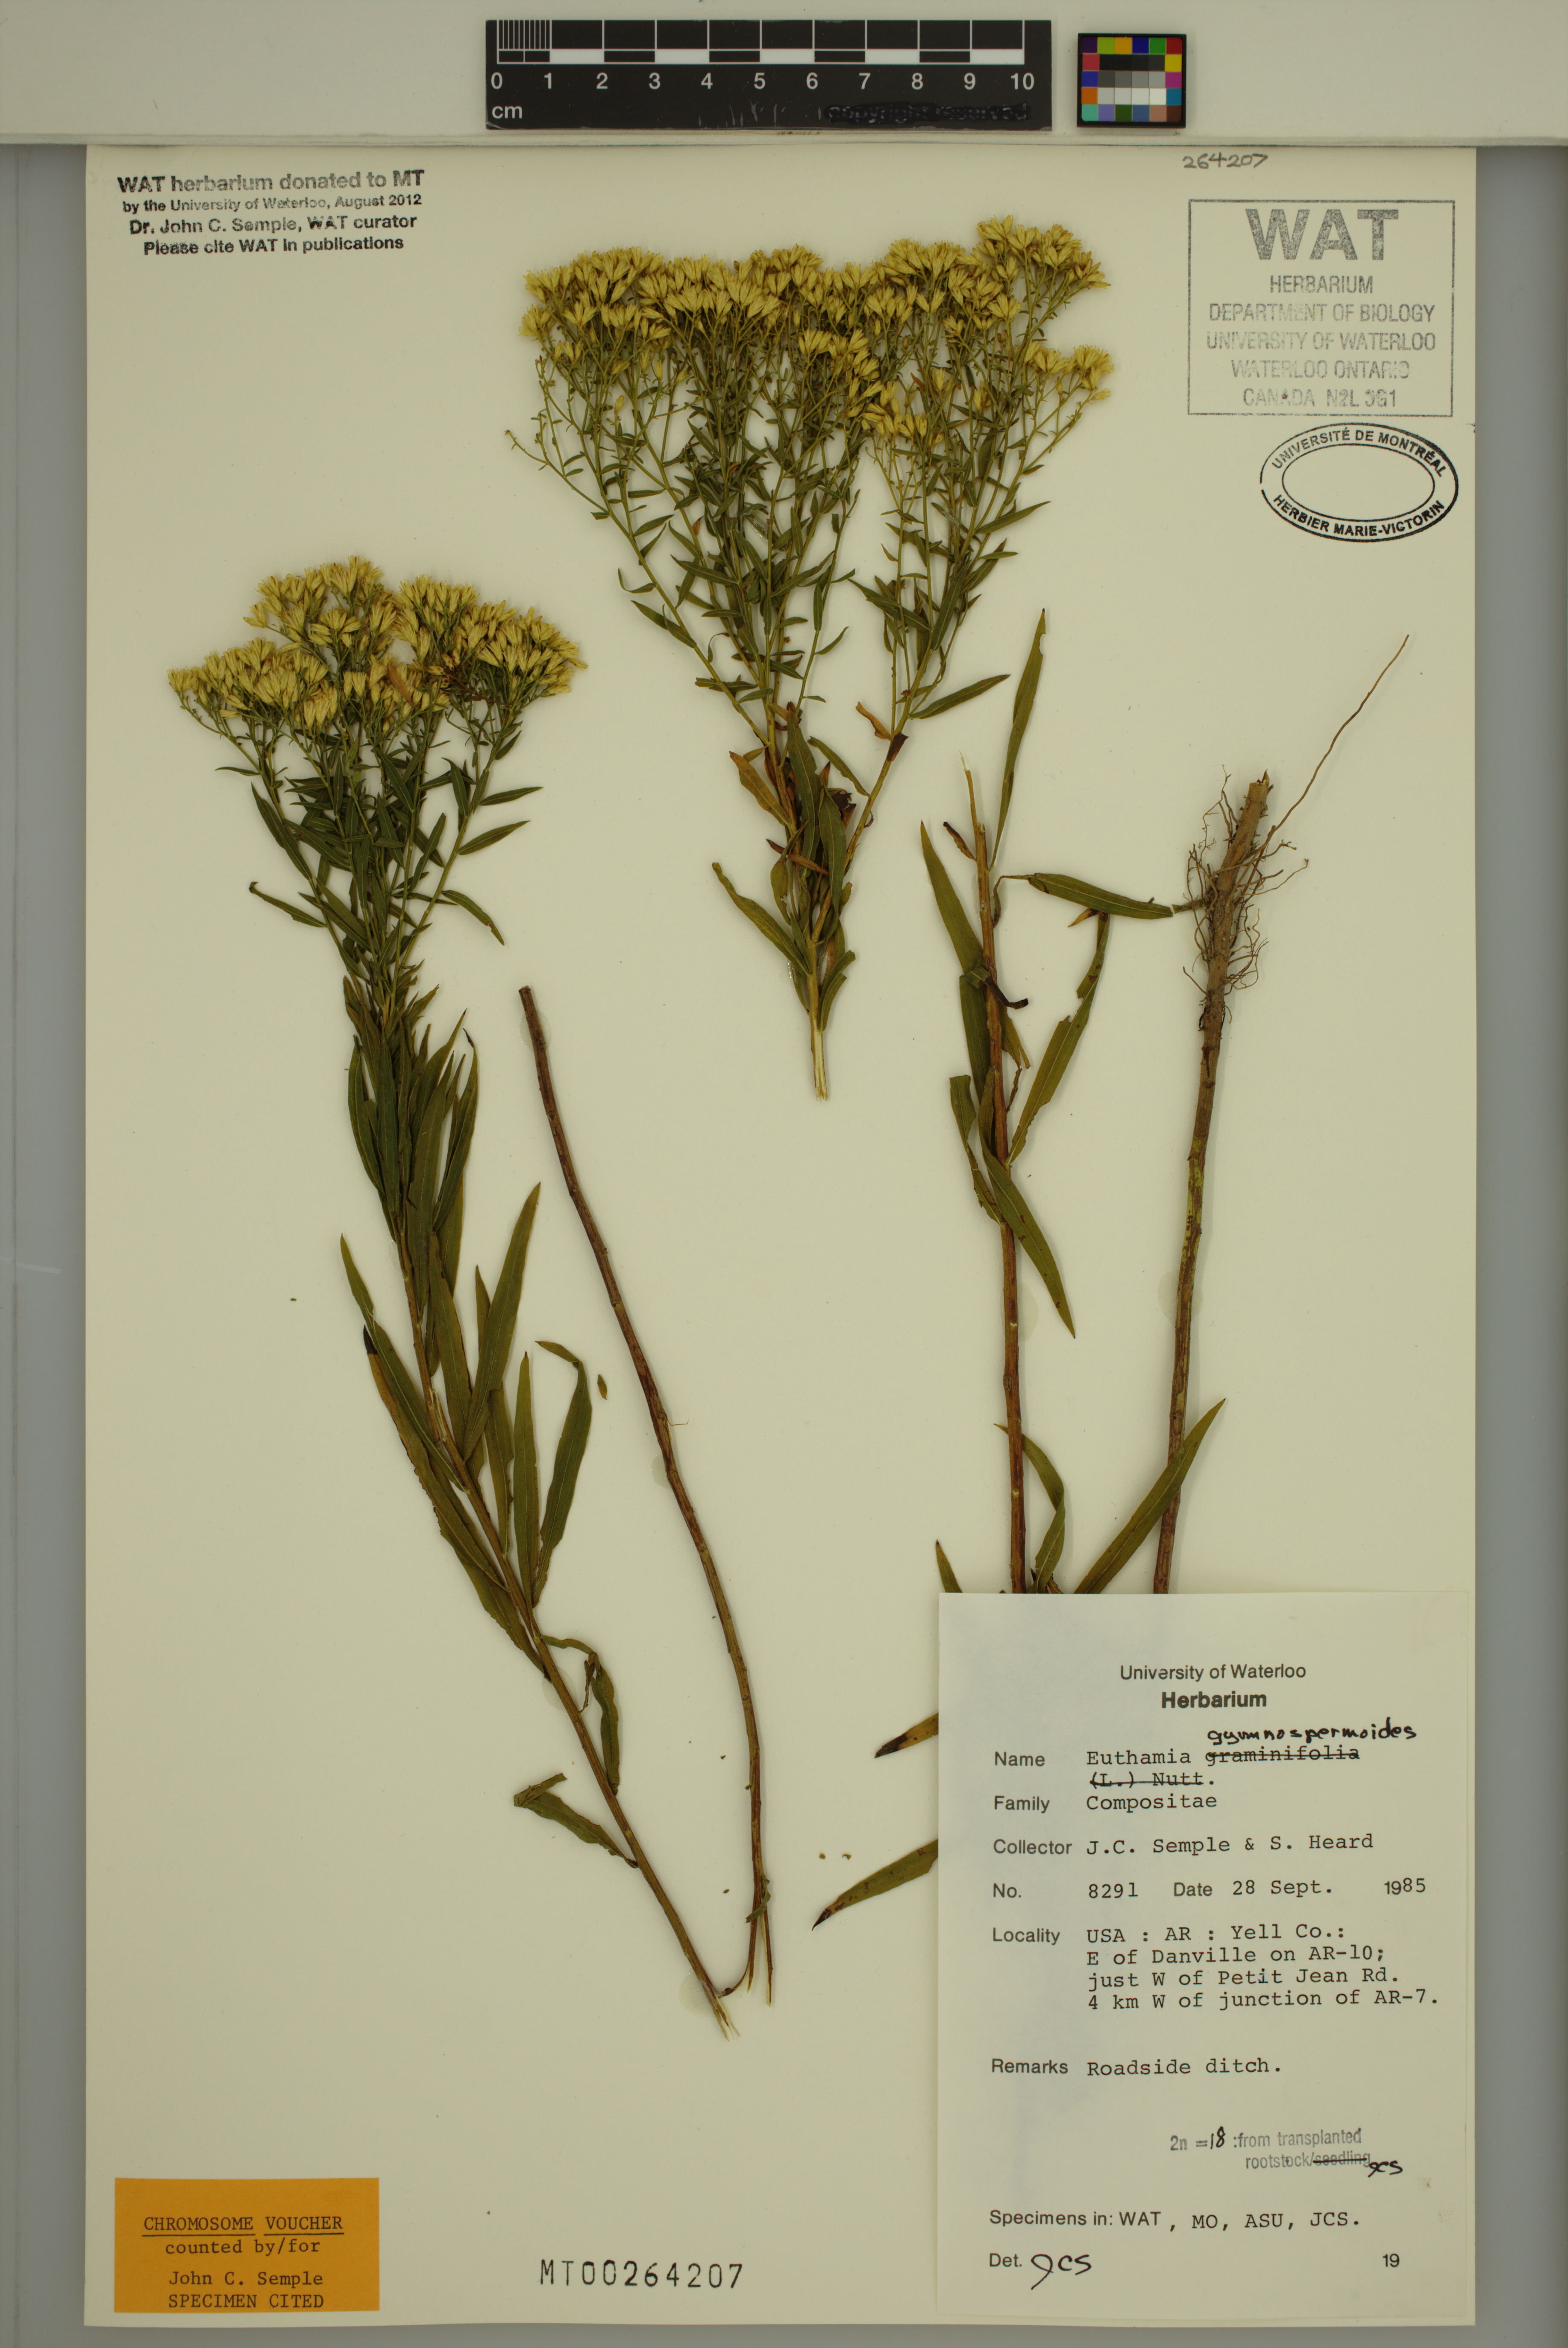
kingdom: Plantae
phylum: Tracheophyta
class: Magnoliopsida
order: Asterales
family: Asteraceae
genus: Euthamia
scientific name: Euthamia leptocephala
